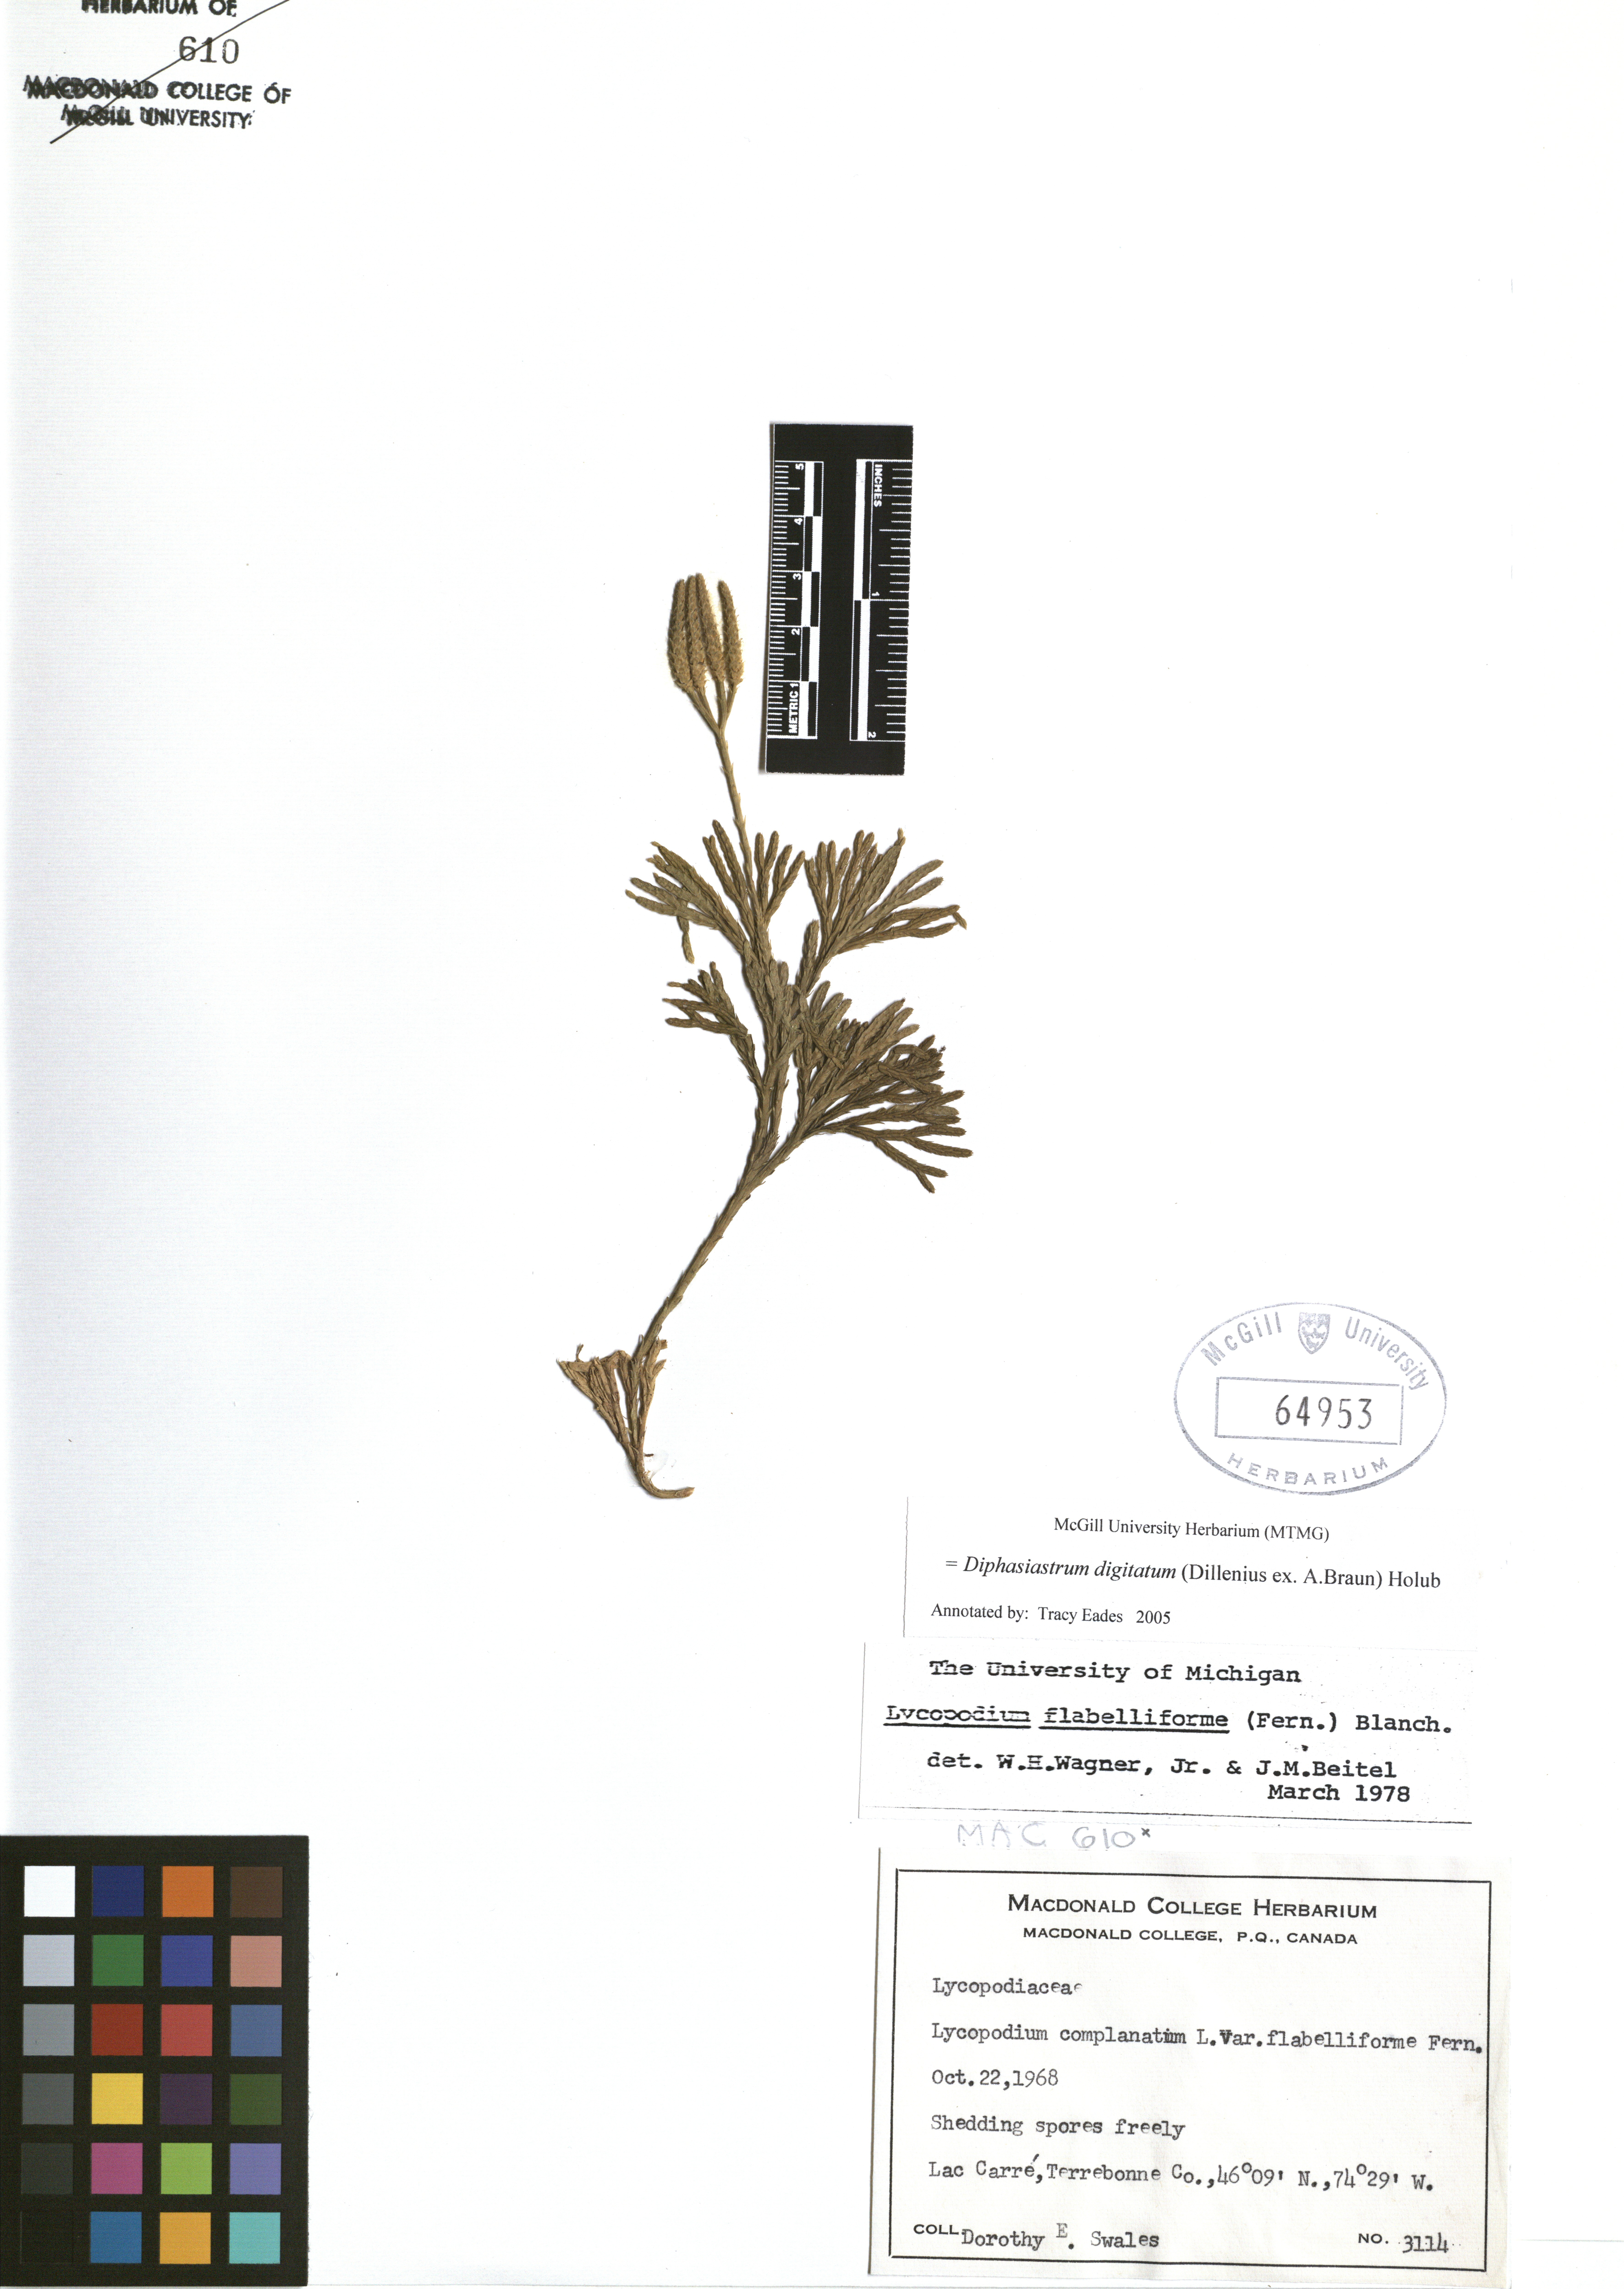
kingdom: Plantae
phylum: Tracheophyta
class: Lycopodiopsida
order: Lycopodiales
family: Lycopodiaceae
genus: Diphasiastrum
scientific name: Diphasiastrum digitatum
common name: Southern running-pine
